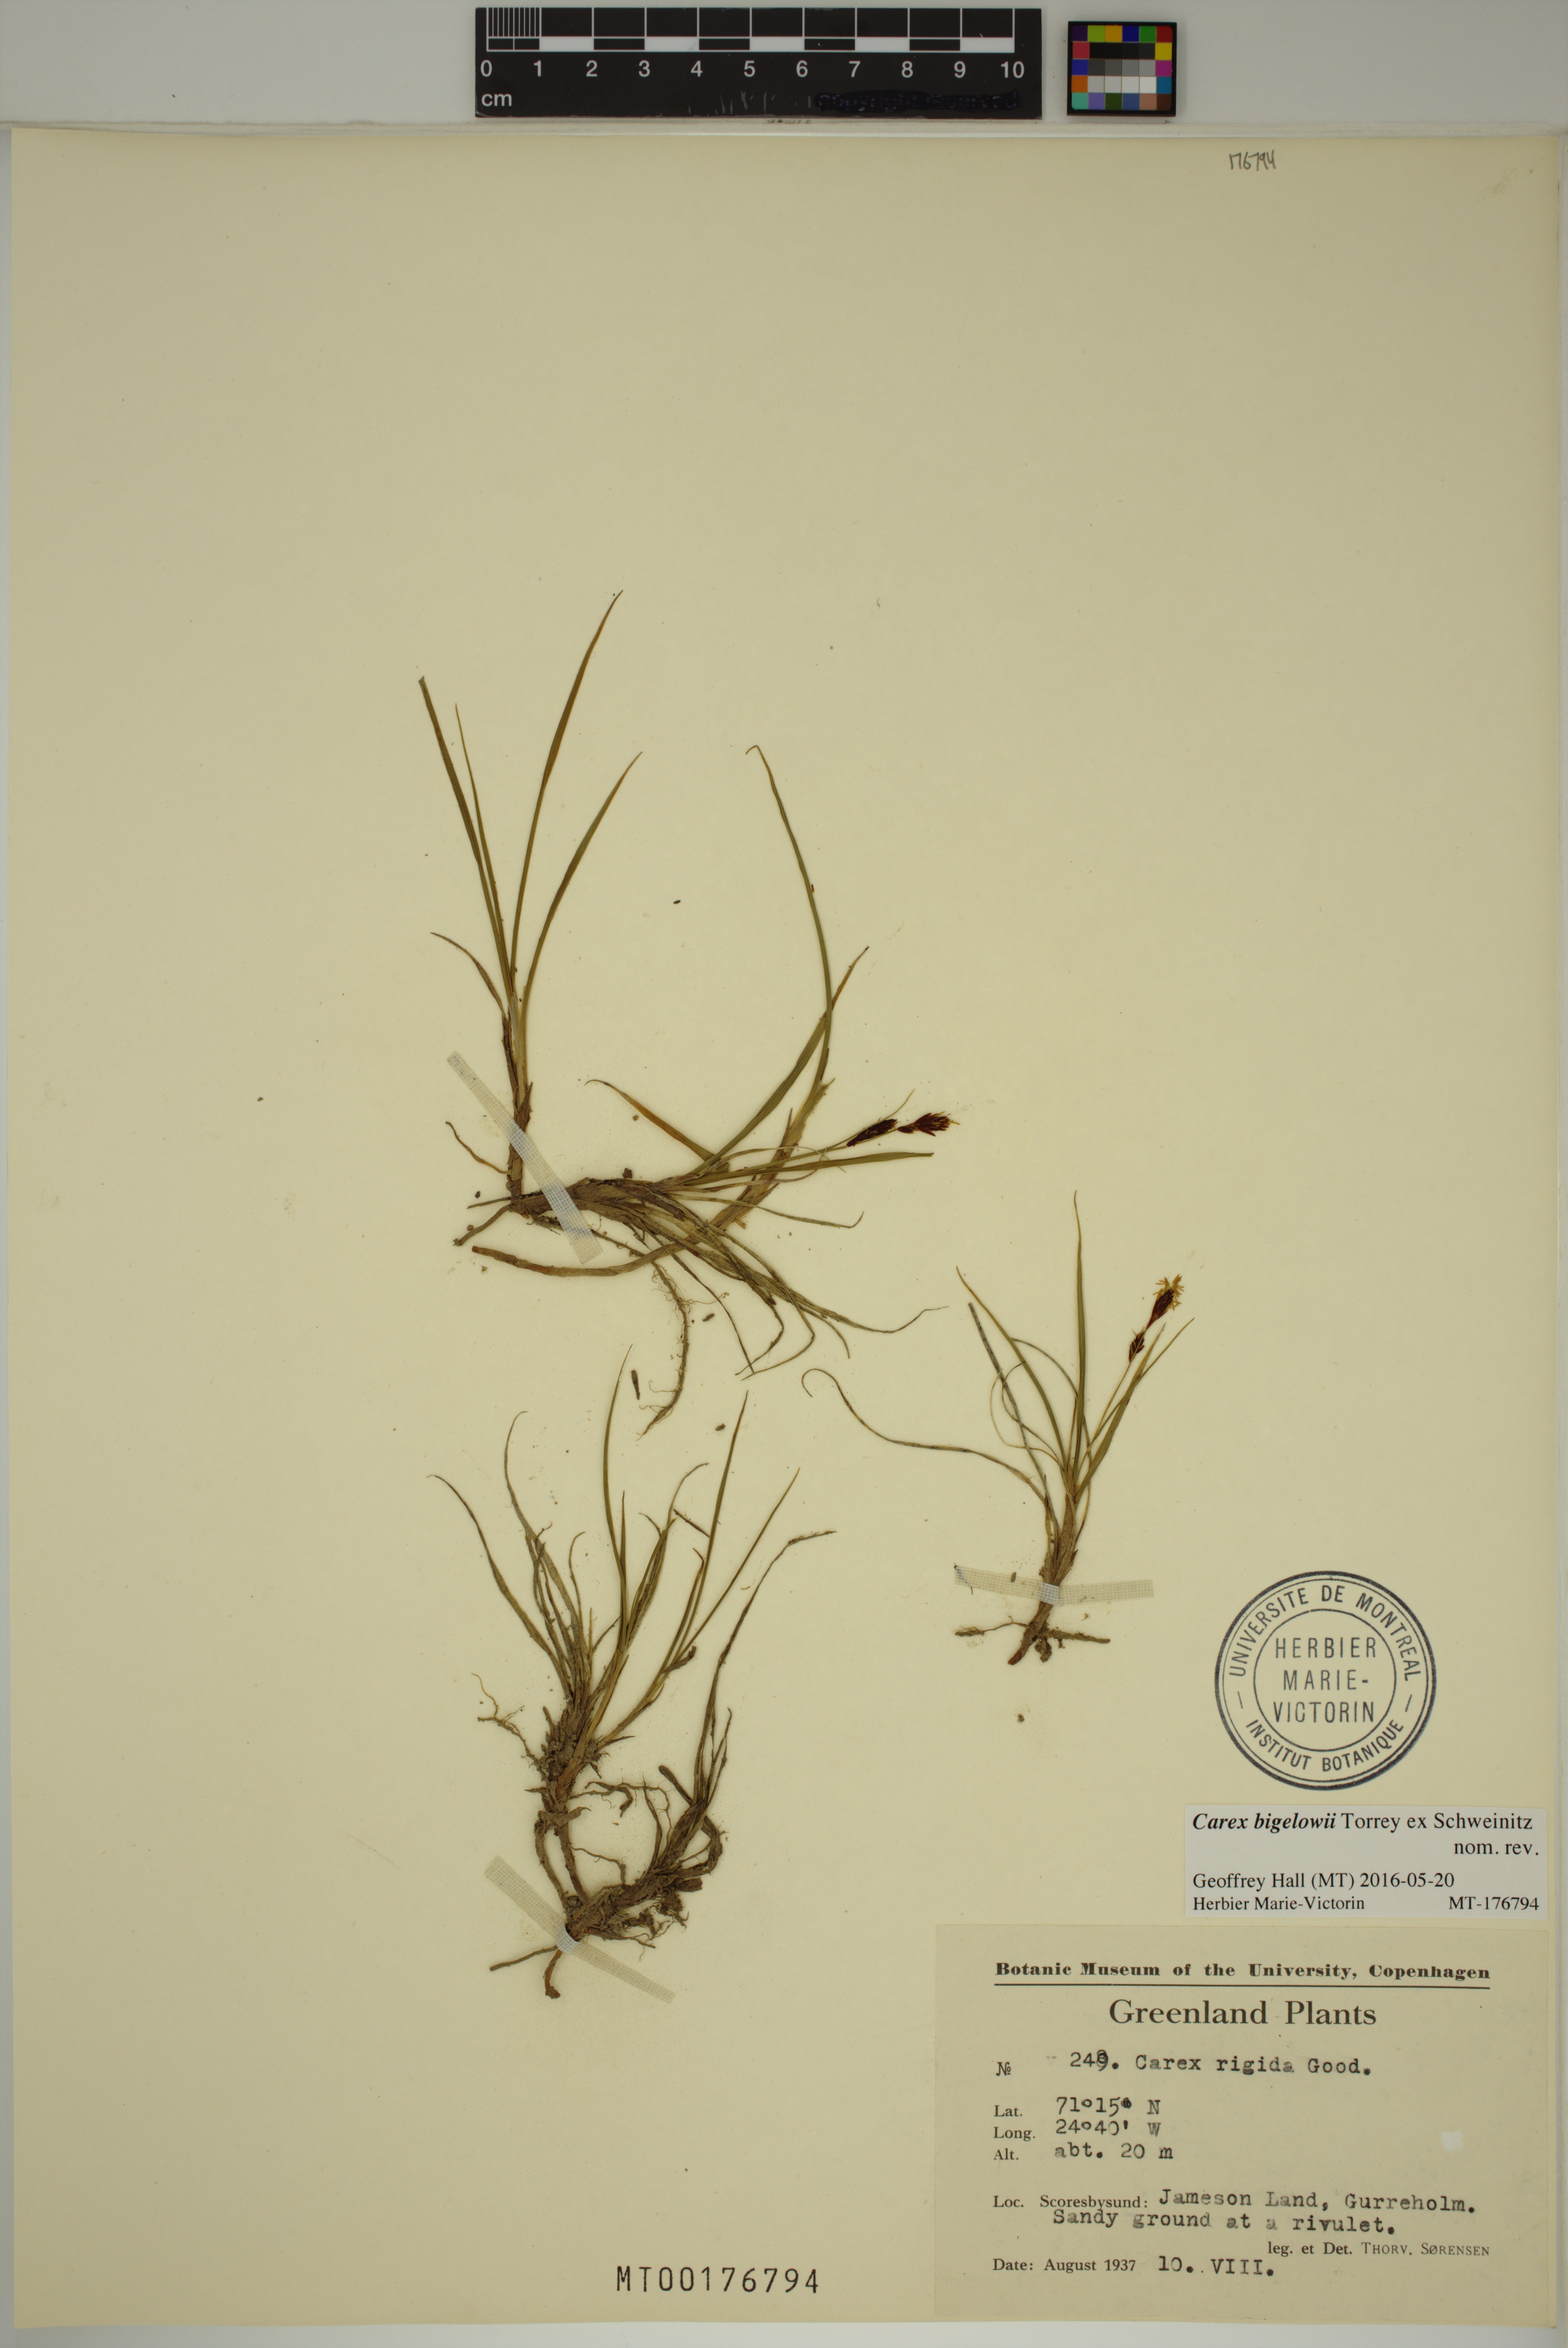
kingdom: Plantae
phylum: Tracheophyta
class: Liliopsida
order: Poales
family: Cyperaceae
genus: Carex
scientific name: Carex bigelowii
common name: Stiff sedge
